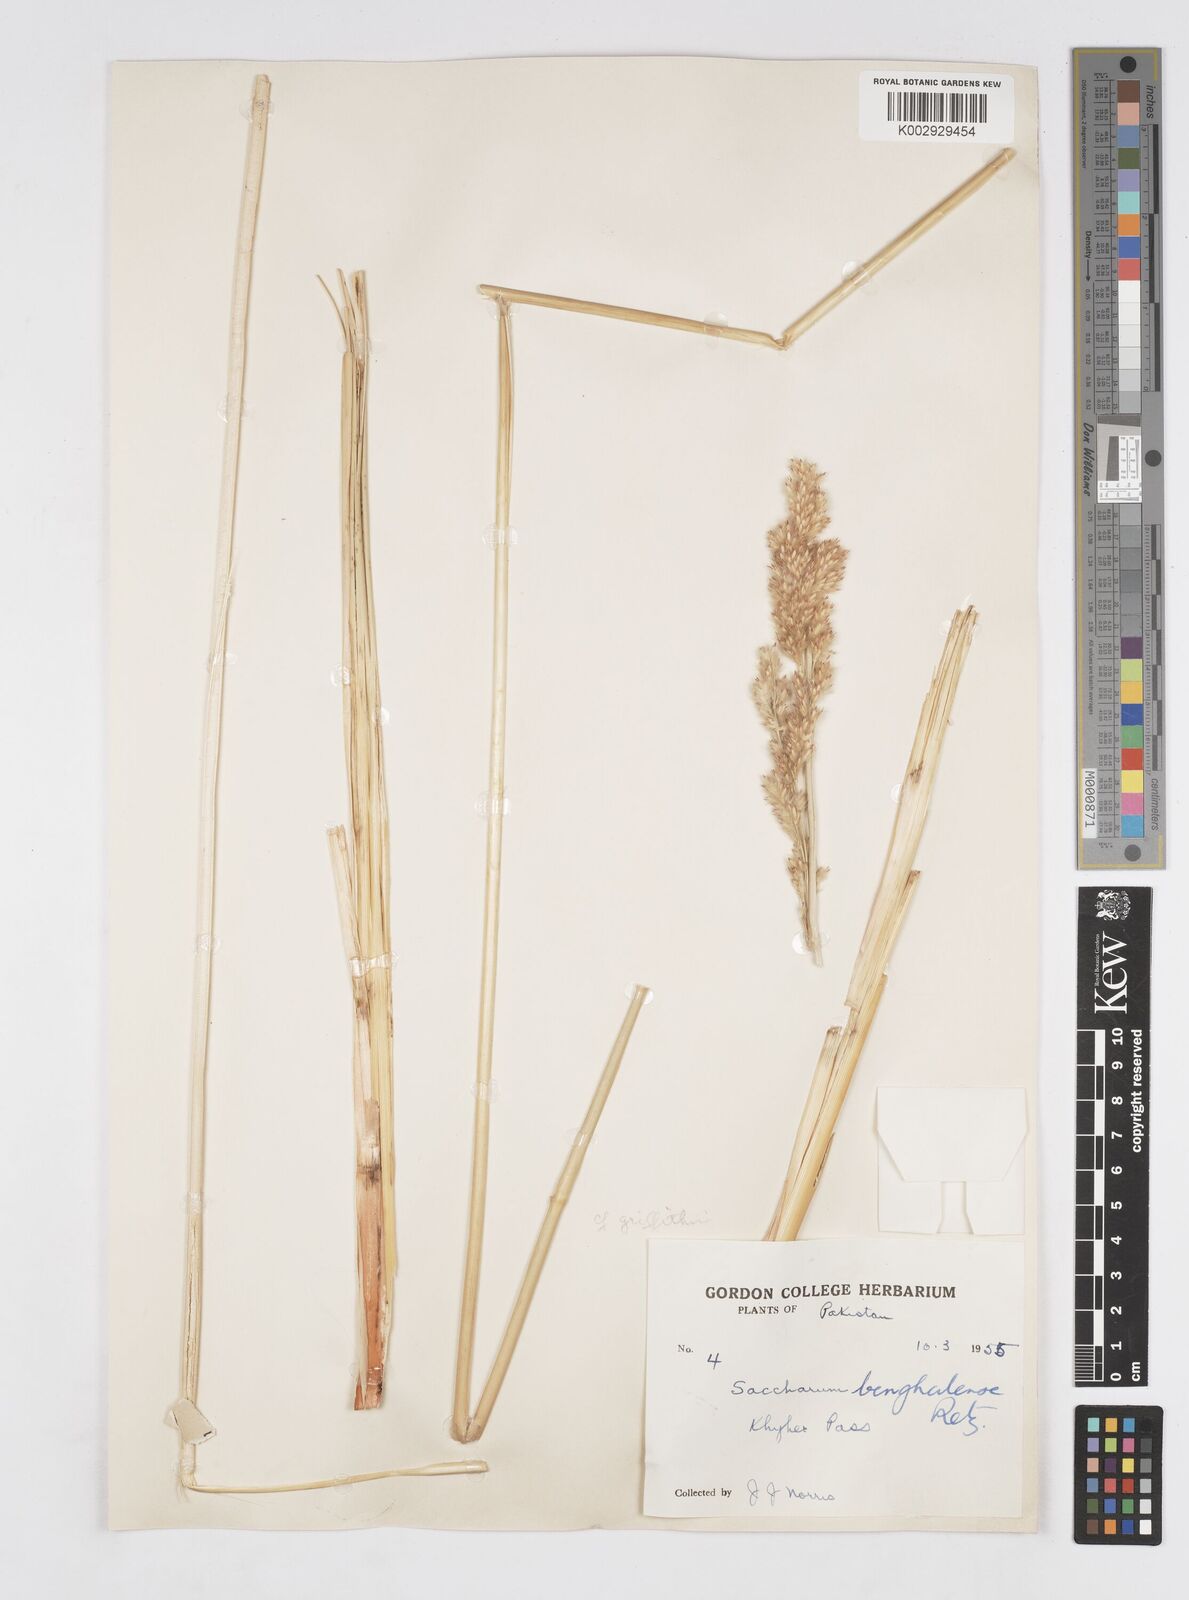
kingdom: Plantae
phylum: Tracheophyta
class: Liliopsida
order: Poales
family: Poaceae
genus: Saccharum
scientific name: Saccharum
